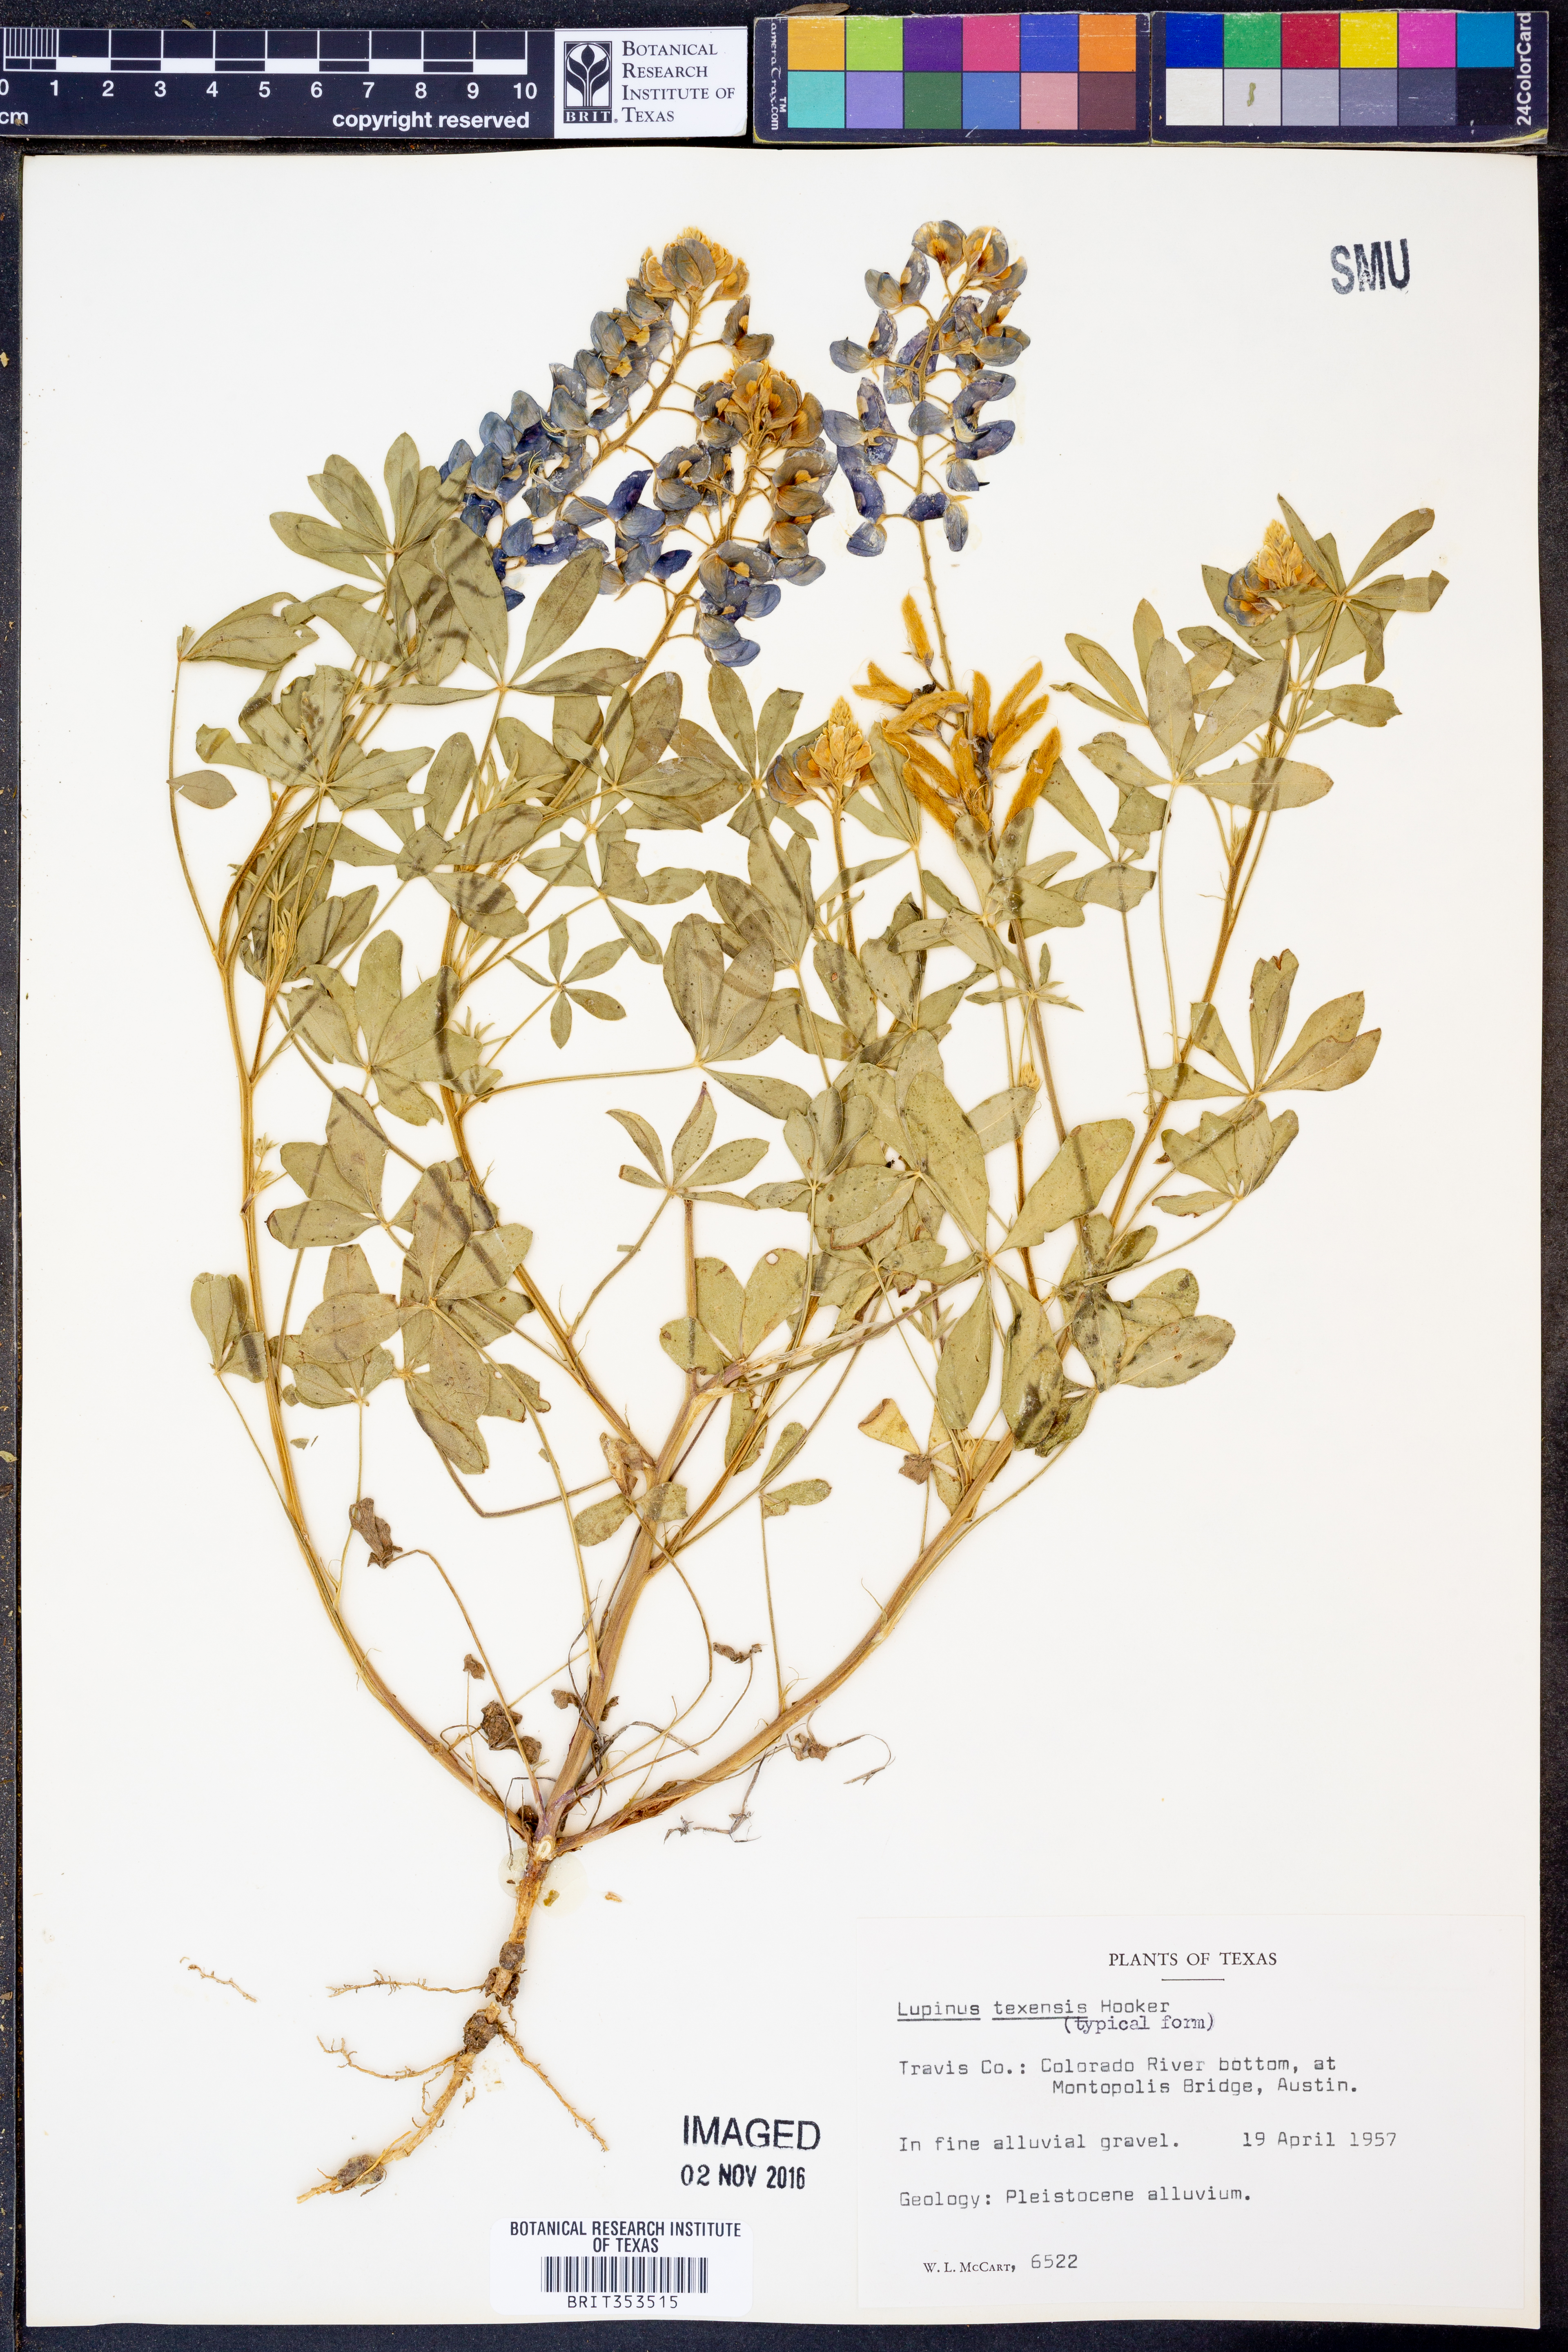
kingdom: Plantae
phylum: Tracheophyta
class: Magnoliopsida
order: Fabales
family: Fabaceae
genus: Lupinus
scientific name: Lupinus texensis
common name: Texas bluebonnet
